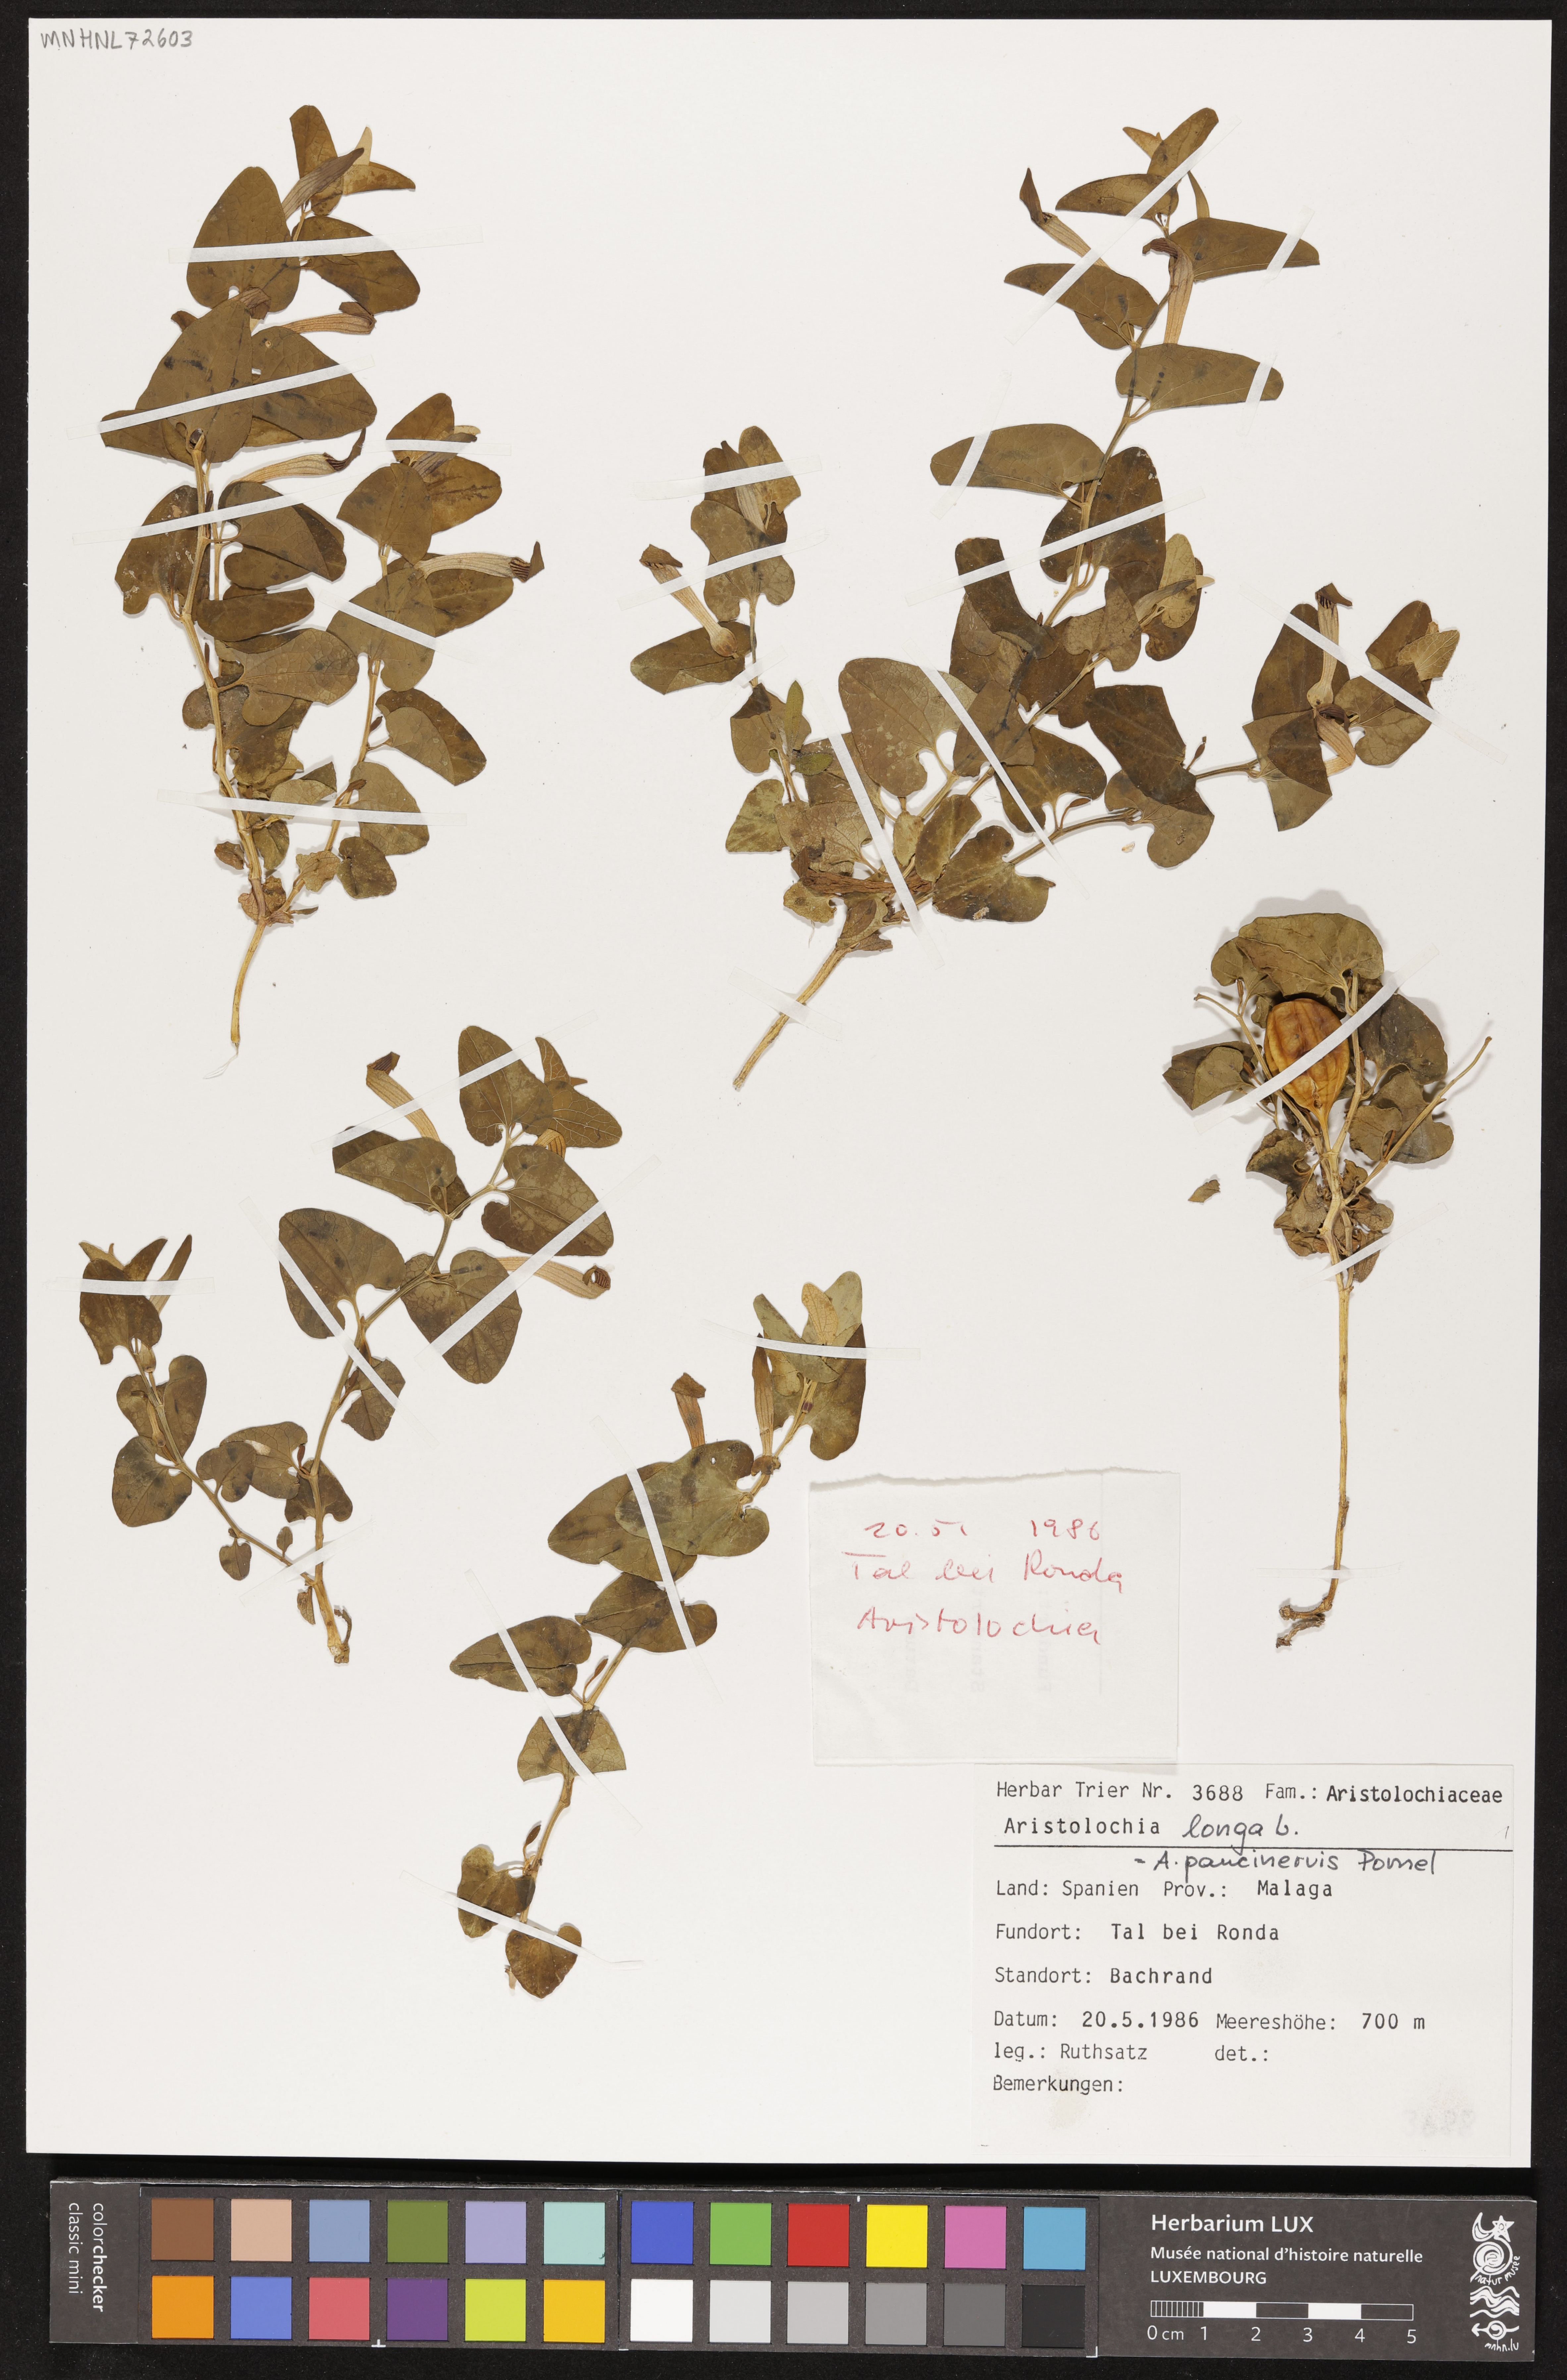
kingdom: Plantae
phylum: Tracheophyta
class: Magnoliopsida
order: Piperales
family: Aristolochiaceae
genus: Aristolochia
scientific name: Aristolochia fontanesii
